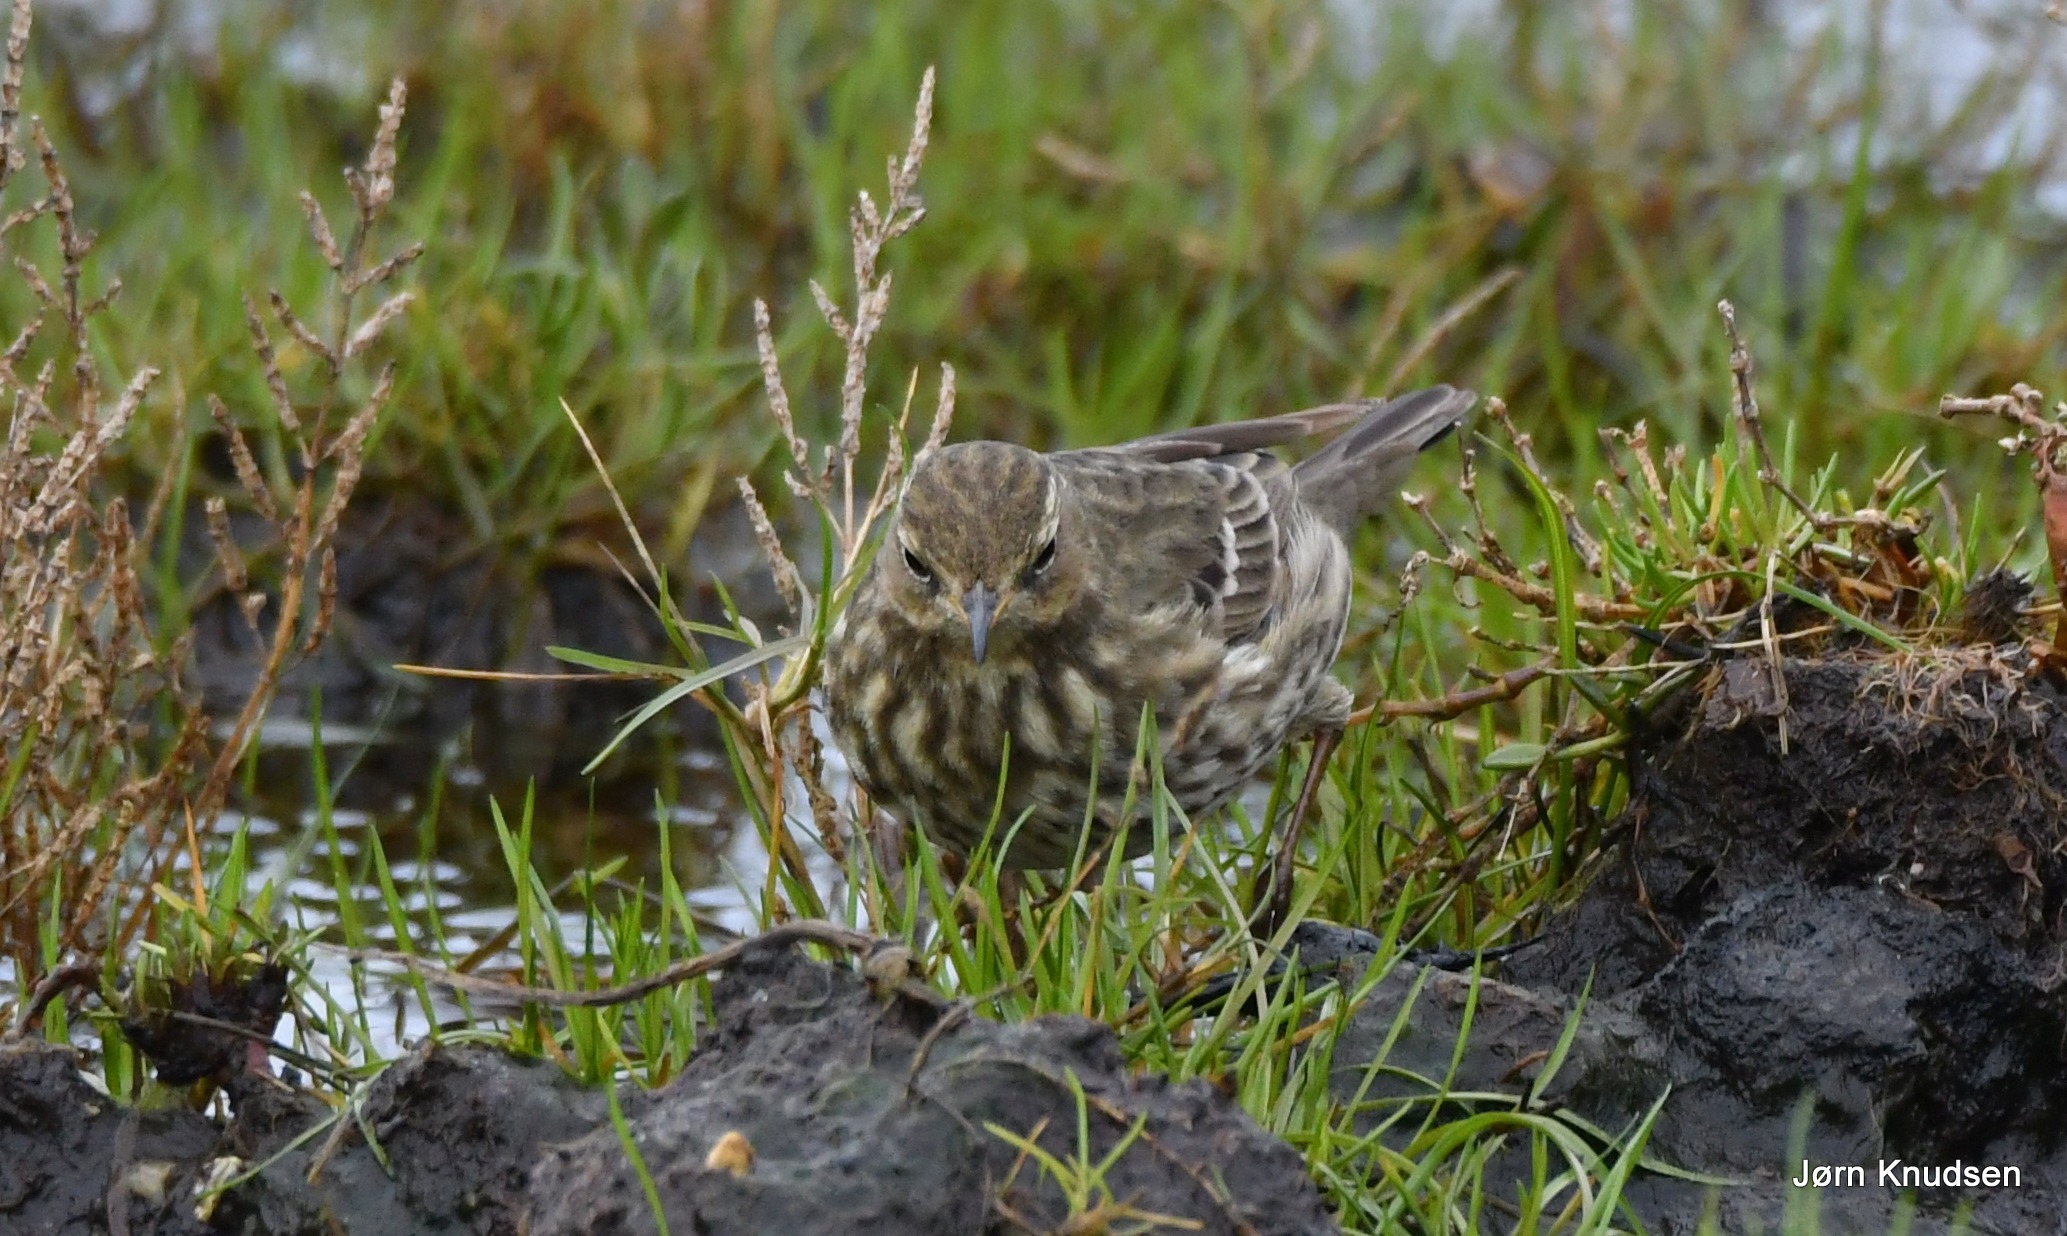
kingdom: Animalia
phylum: Chordata
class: Aves
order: Passeriformes
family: Motacillidae
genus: Anthus
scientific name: Anthus petrosus
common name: Skærpiber
